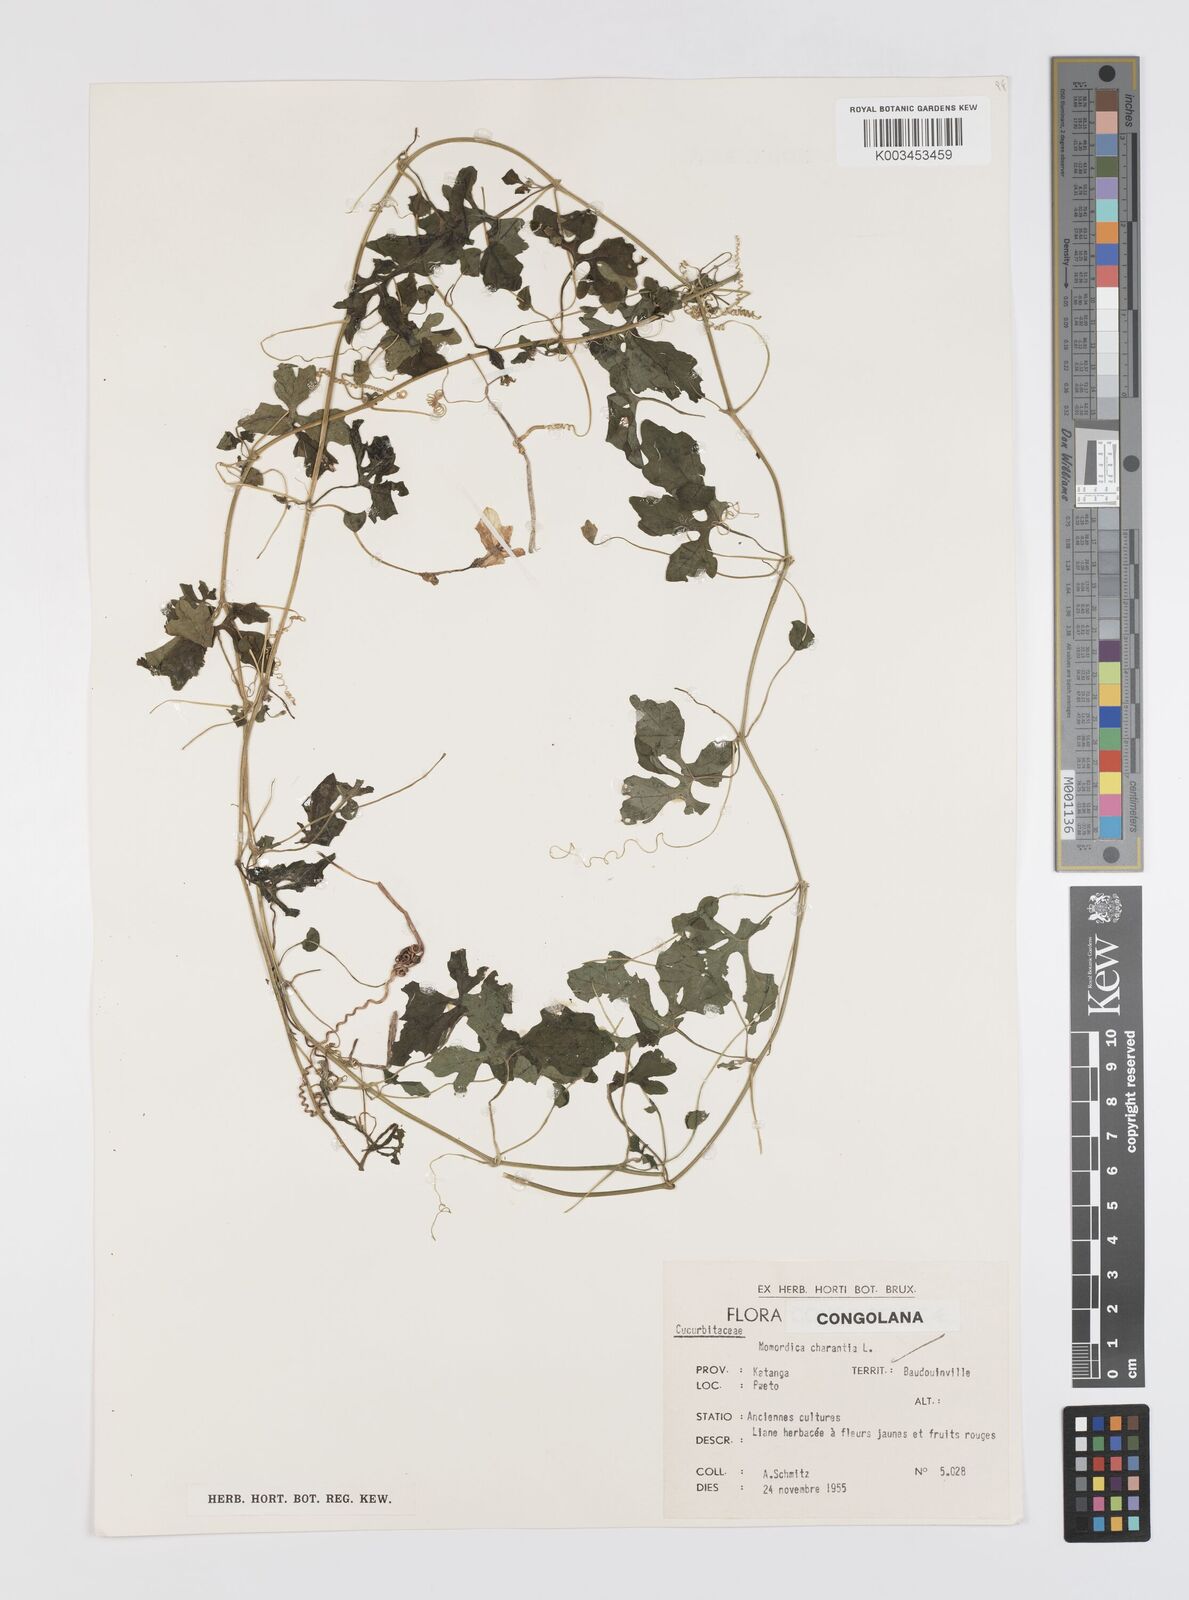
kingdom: Plantae
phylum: Tracheophyta
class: Magnoliopsida
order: Cucurbitales
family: Cucurbitaceae
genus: Momordica
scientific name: Momordica charantia
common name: Balsampear
